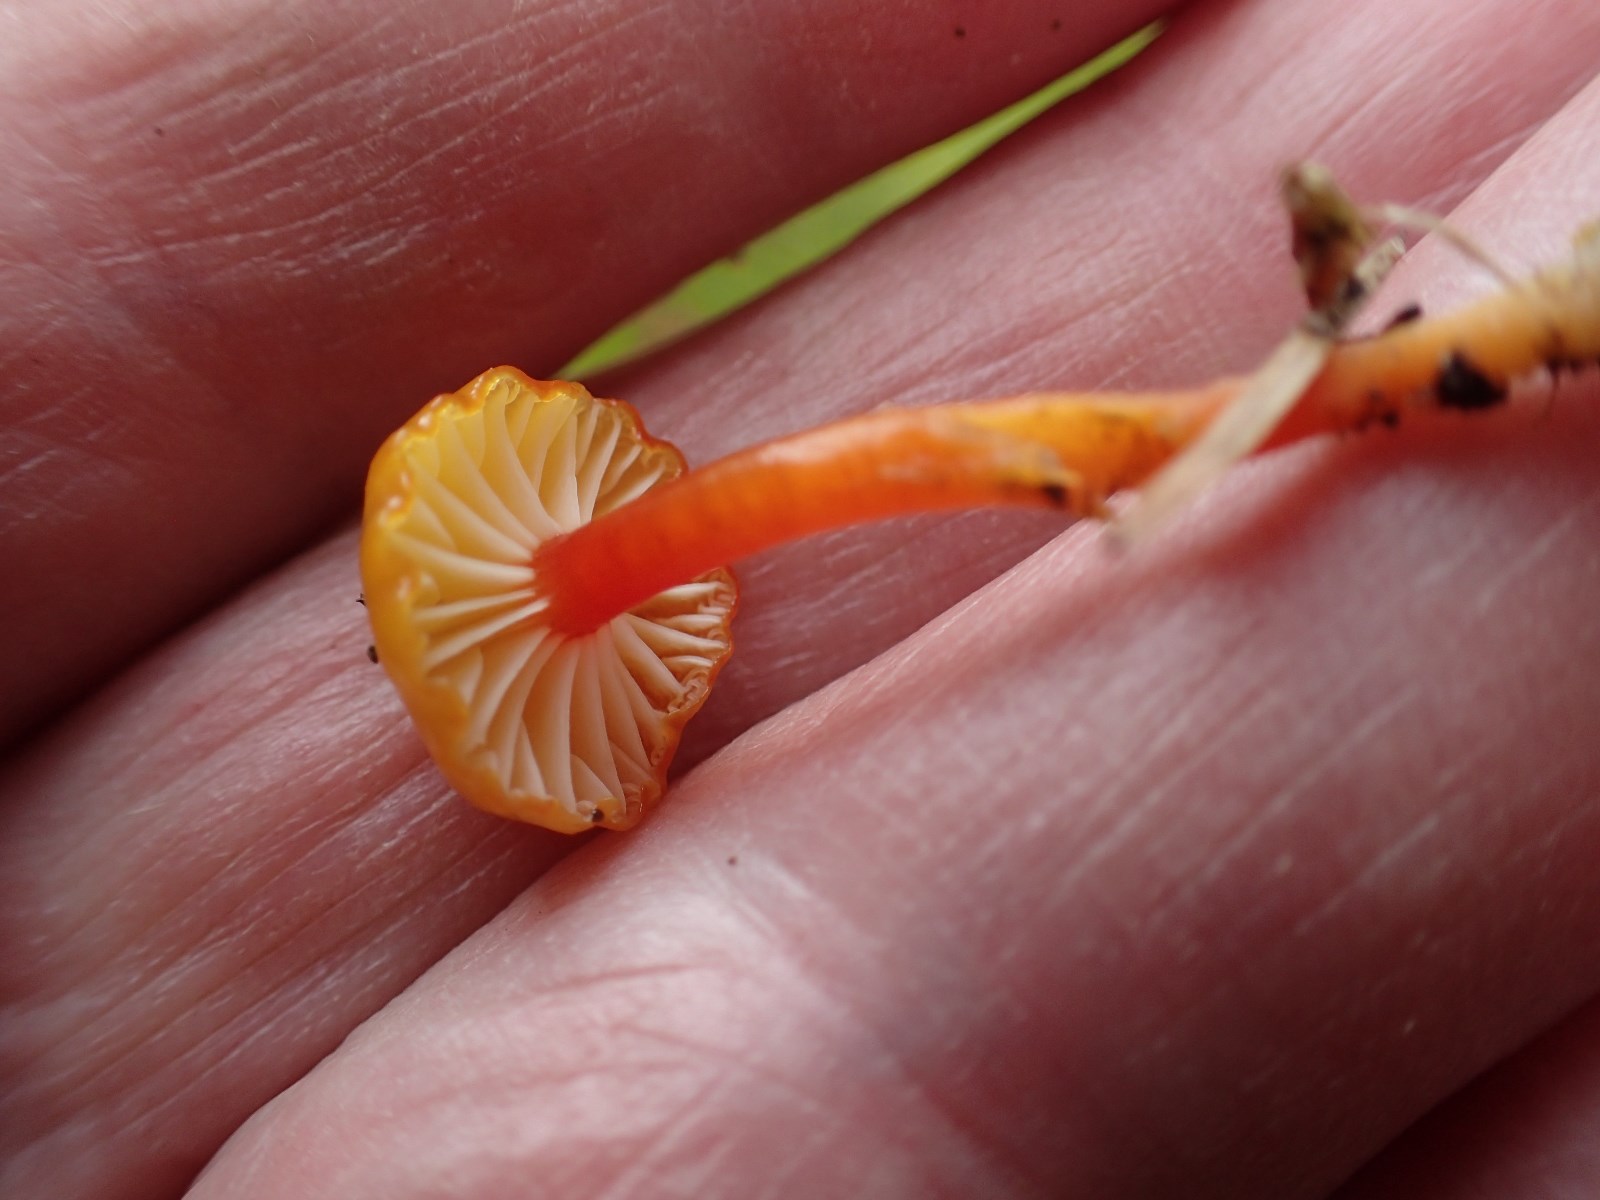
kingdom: Fungi
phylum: Basidiomycota
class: Agaricomycetes
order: Agaricales
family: Hygrophoraceae
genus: Hygrocybe
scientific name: Hygrocybe insipida
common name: liden vokshat
